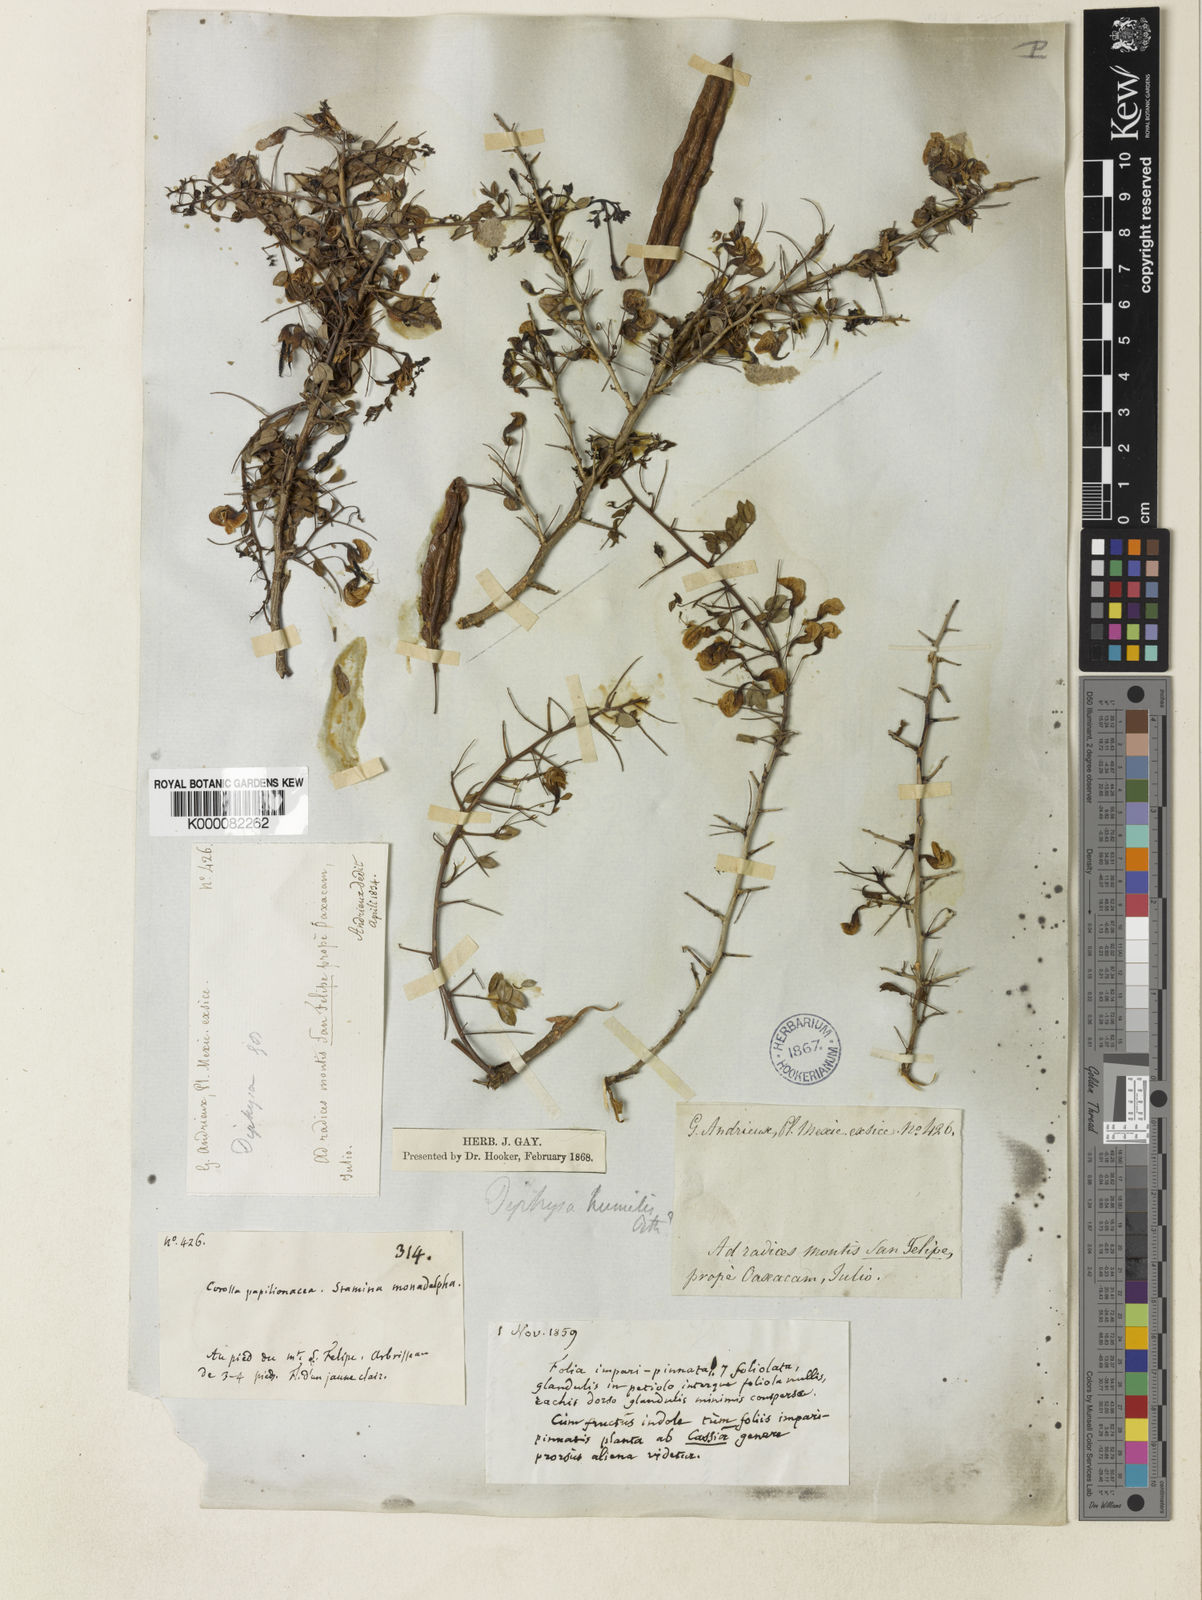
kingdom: Plantae
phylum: Tracheophyta
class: Magnoliopsida
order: Fabales
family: Fabaceae
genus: Diphysa
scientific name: Diphysa americana
